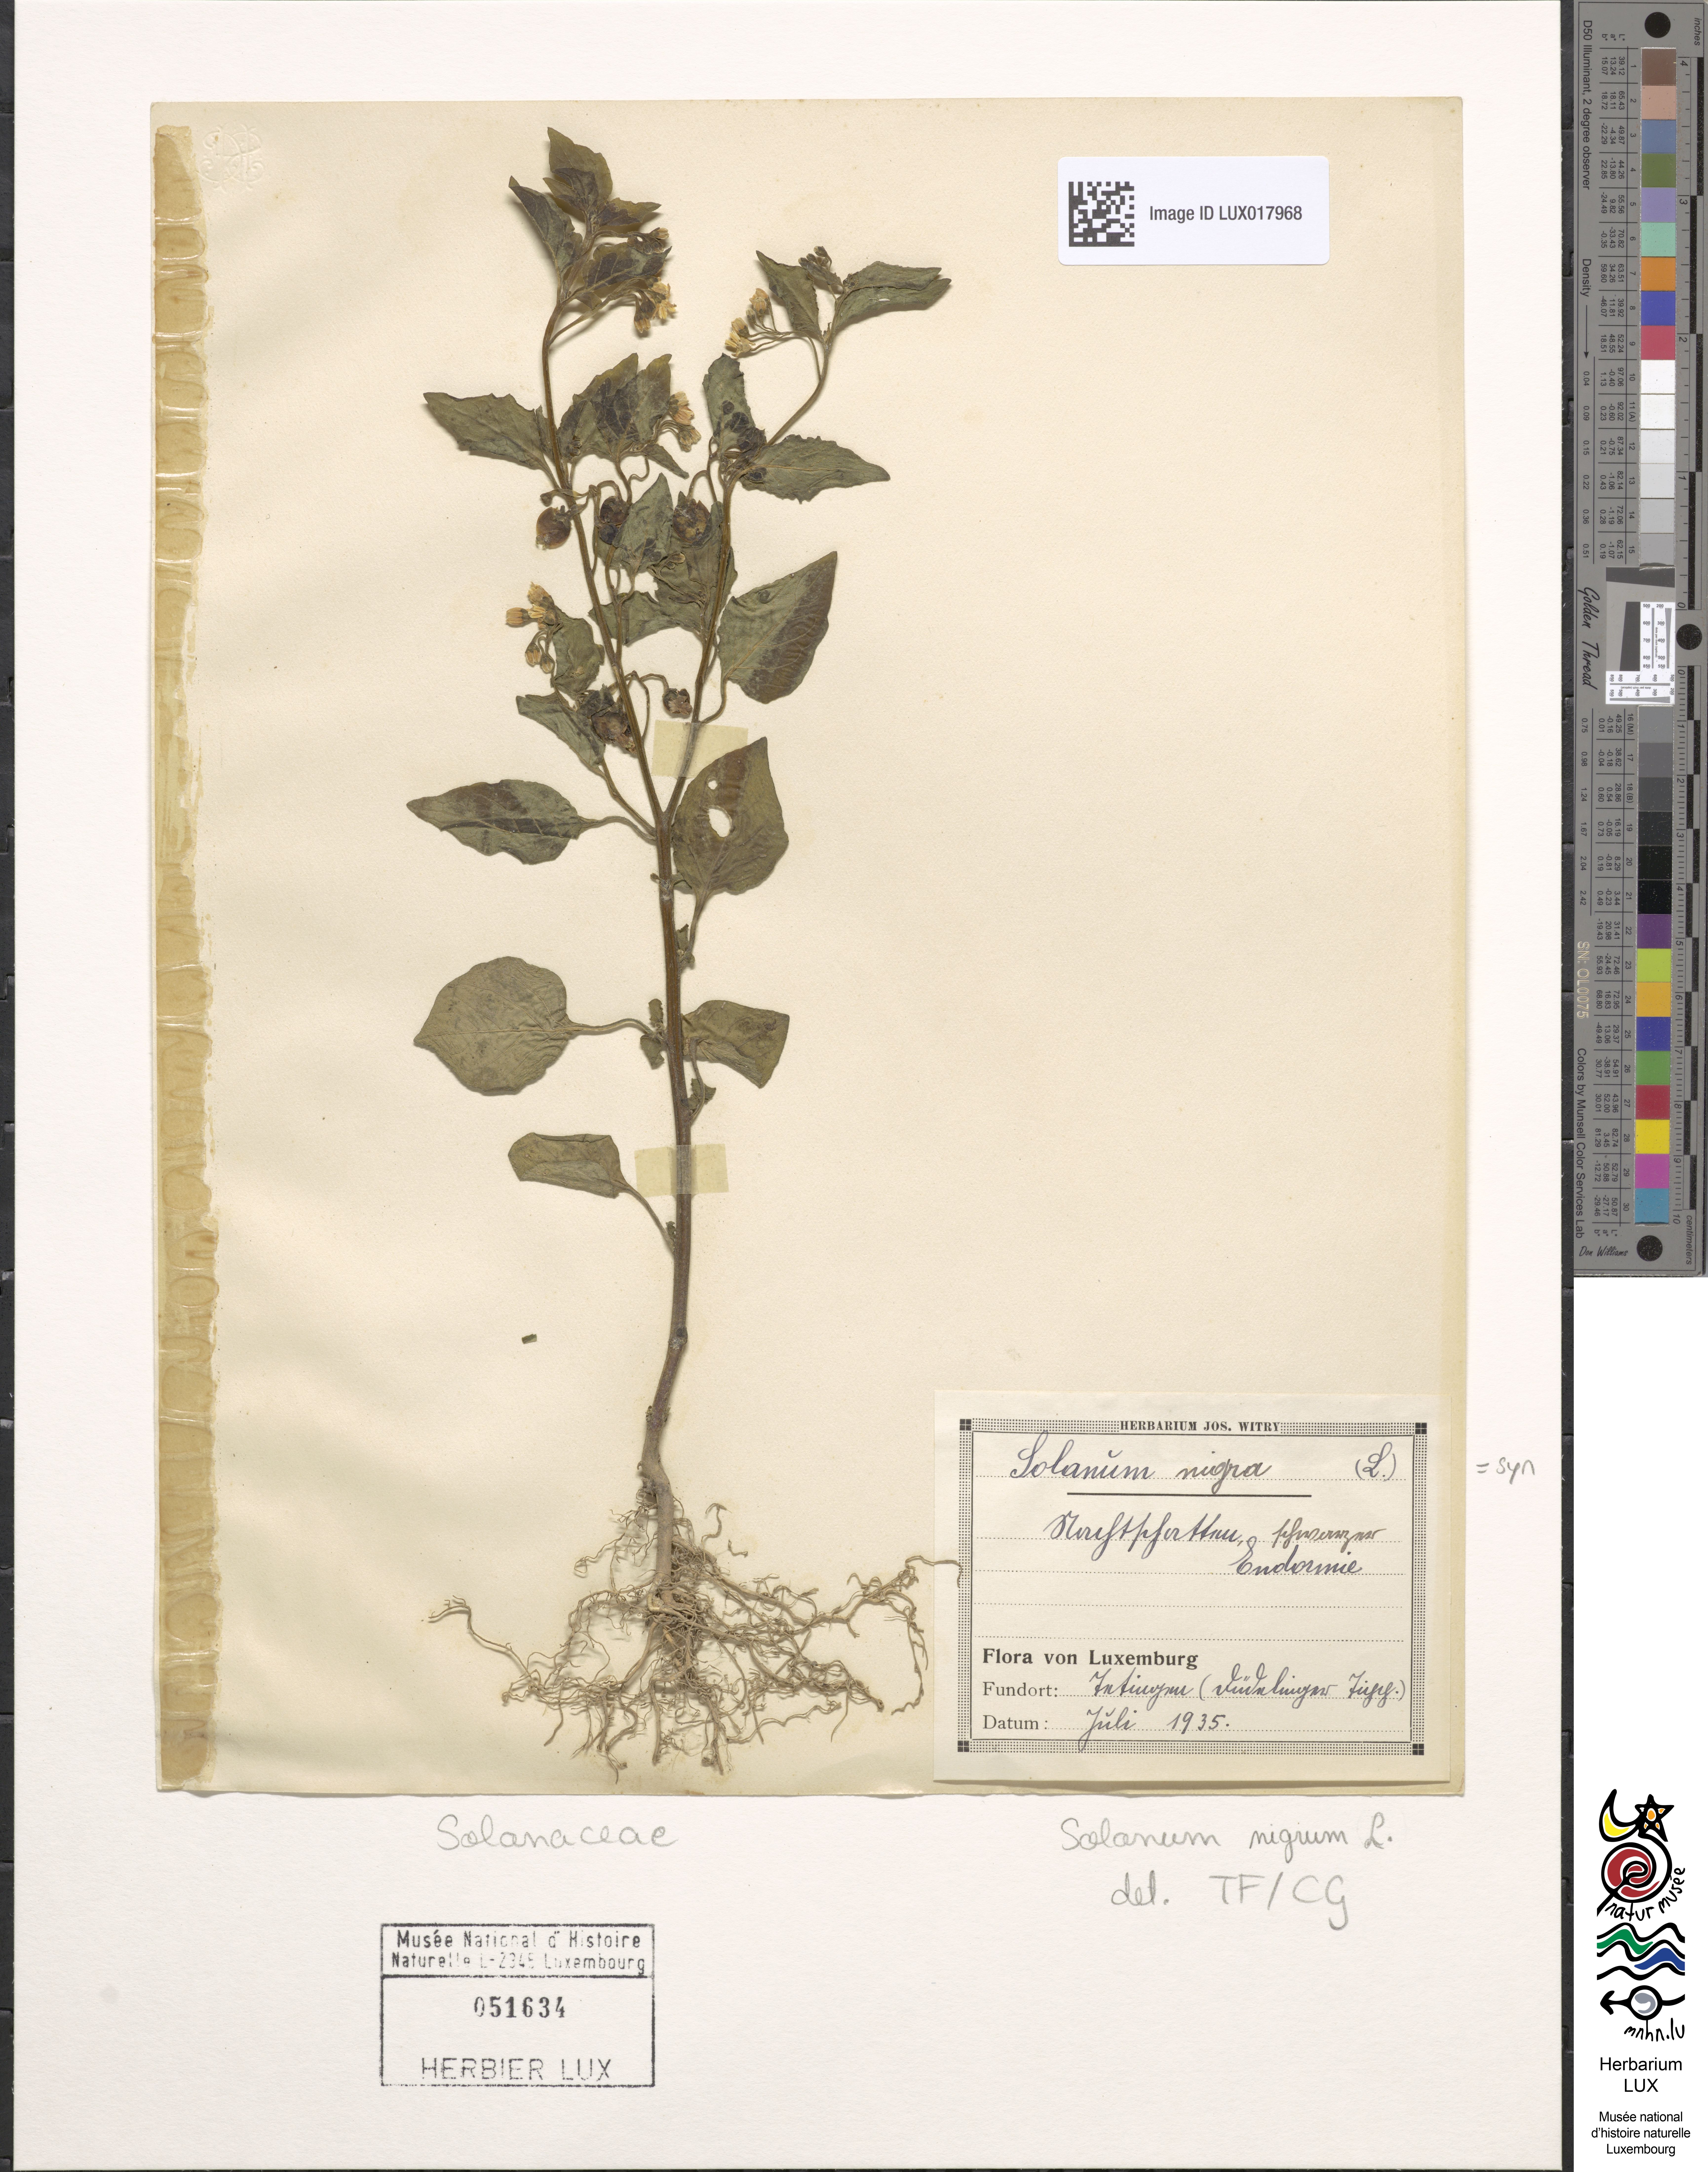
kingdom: Plantae
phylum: Tracheophyta
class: Magnoliopsida
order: Solanales
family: Solanaceae
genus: Solanum
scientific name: Solanum nigrum
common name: Black nightshade
